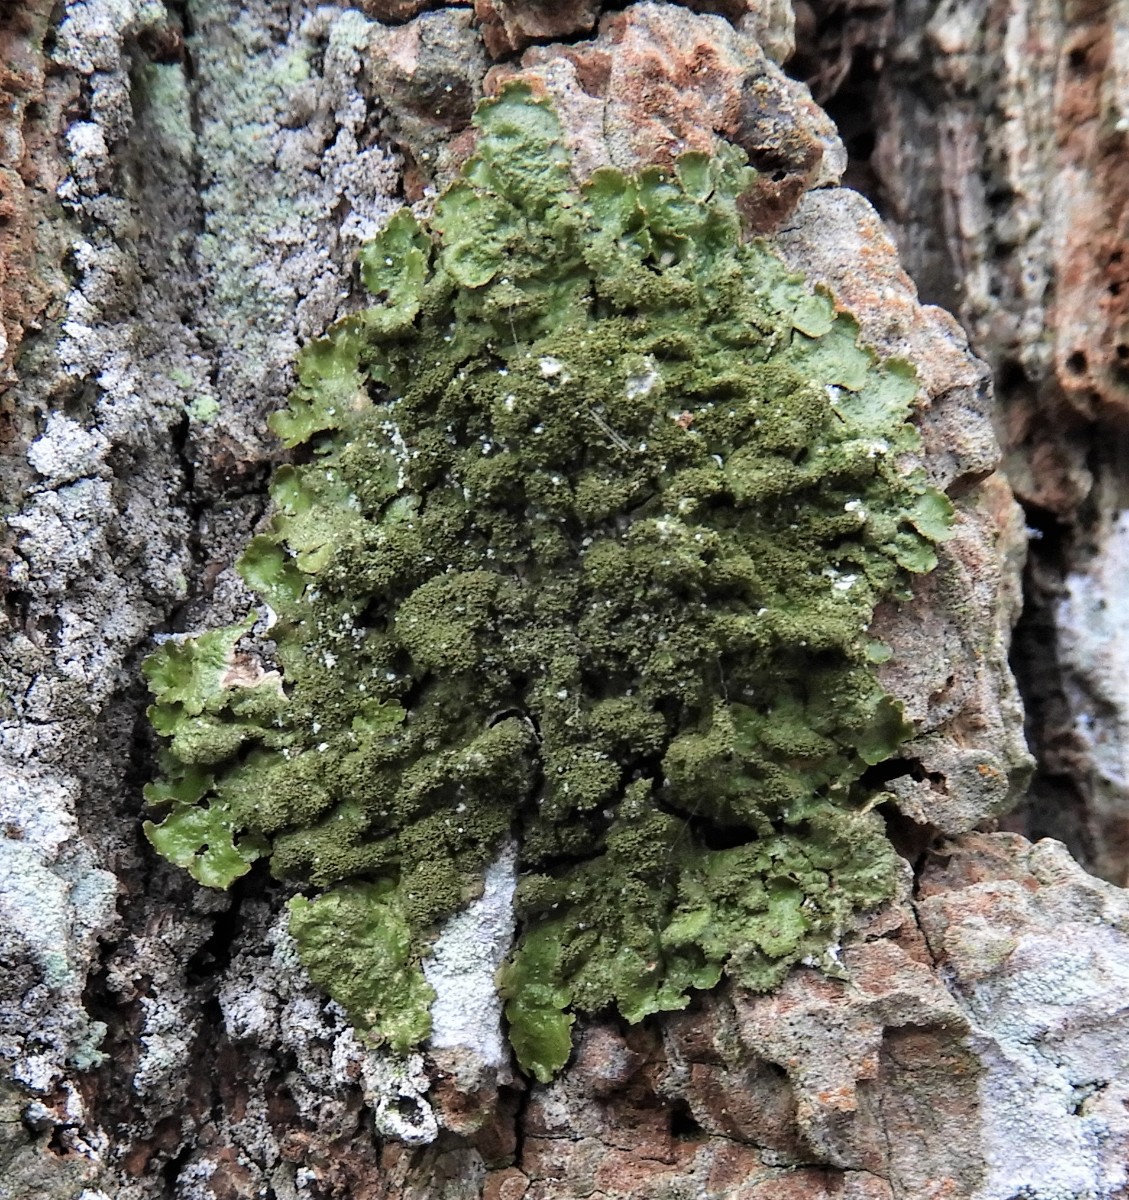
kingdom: Fungi
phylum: Ascomycota
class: Lecanoromycetes
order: Lecanorales
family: Parmeliaceae
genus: Melanelixia
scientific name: Melanelixia glabratula
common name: glinsende skållav
